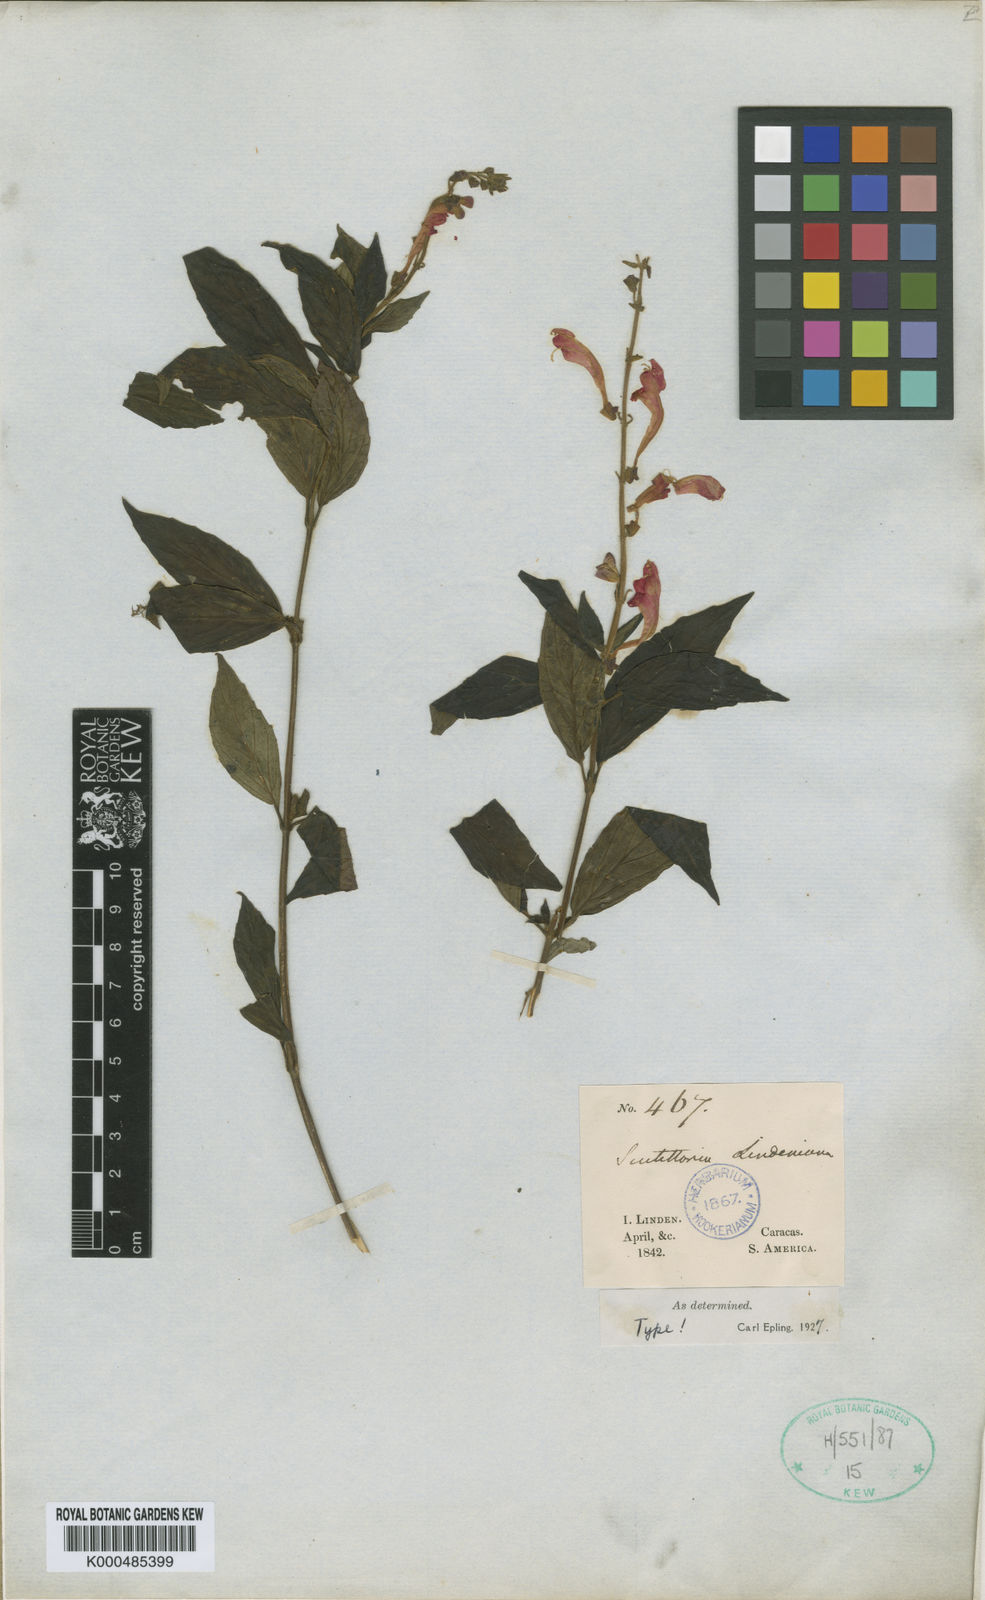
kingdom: Plantae
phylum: Tracheophyta
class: Magnoliopsida
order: Lamiales
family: Lamiaceae
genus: Scutellaria
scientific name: Scutellaria lindeniana
